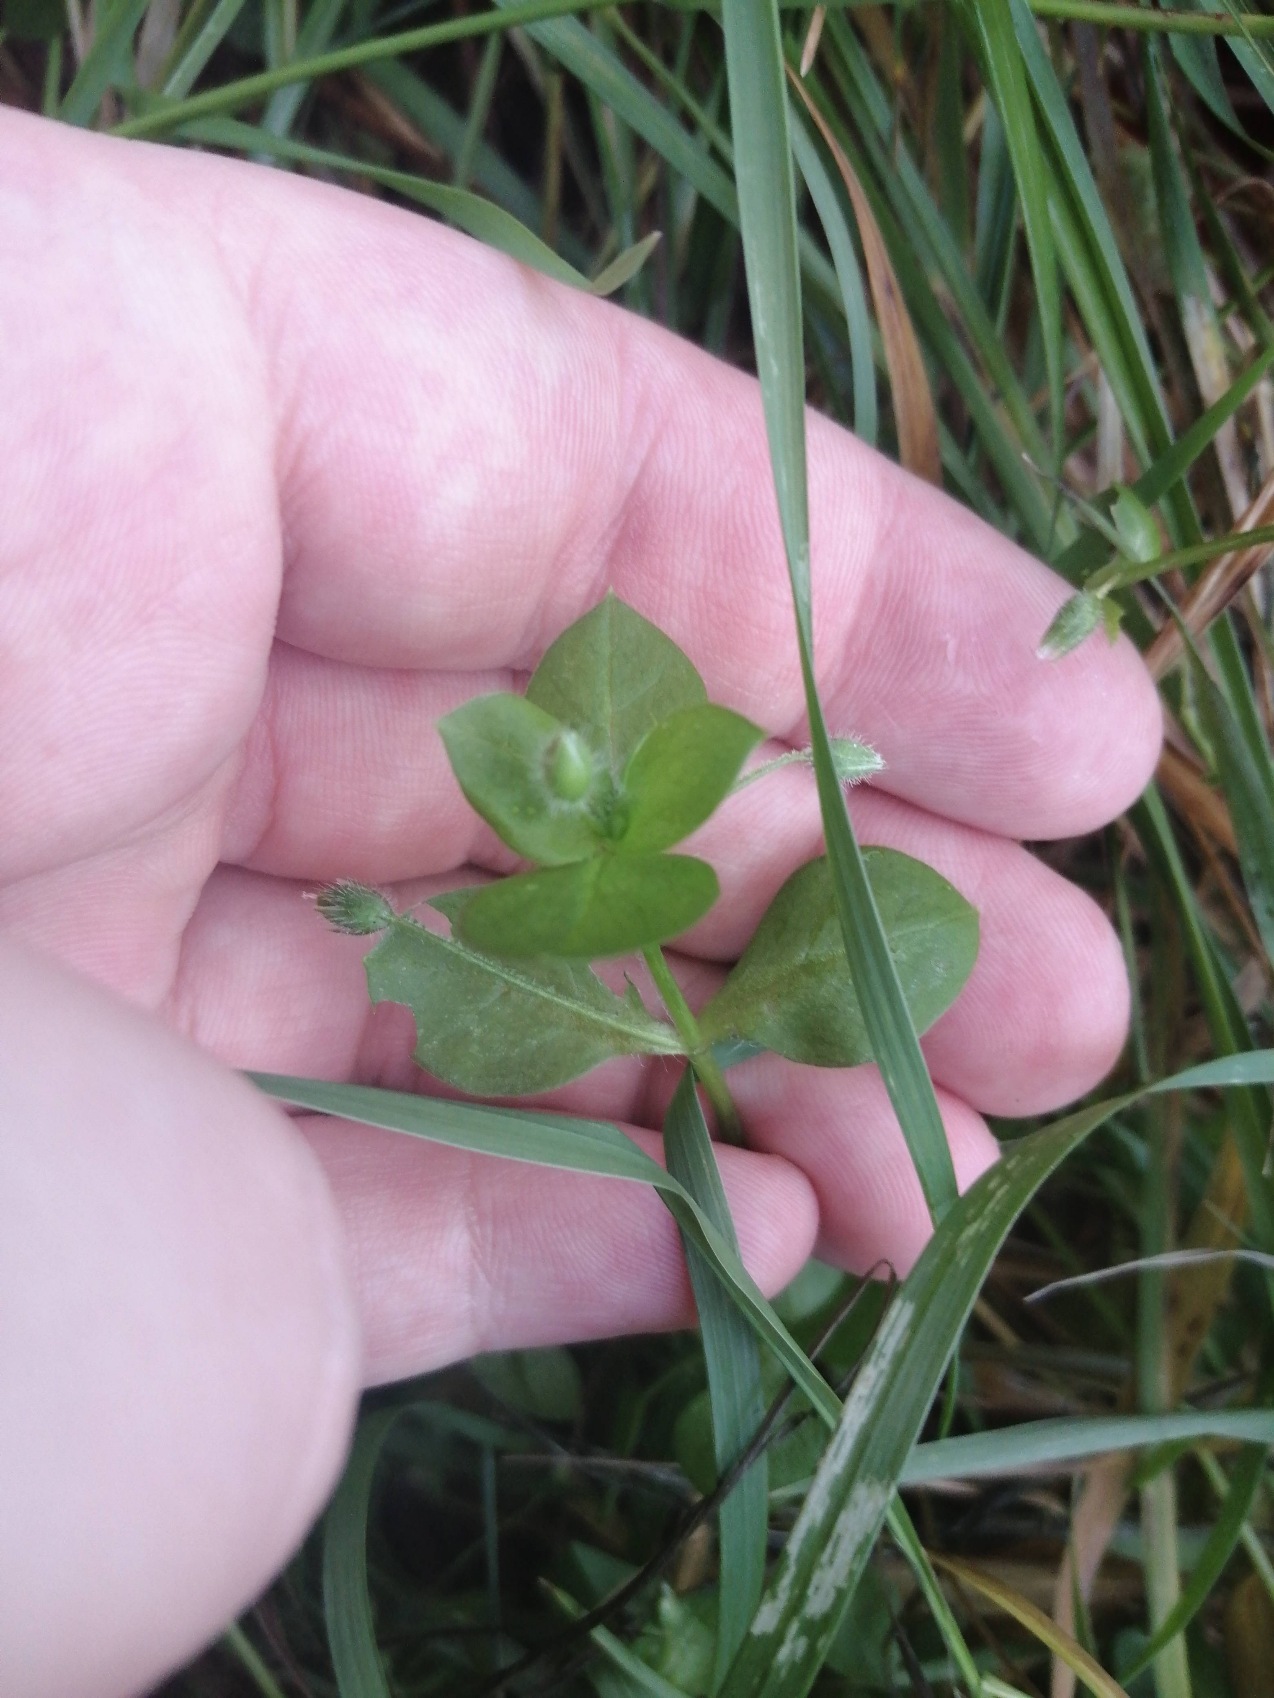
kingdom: Plantae
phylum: Tracheophyta
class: Magnoliopsida
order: Caryophyllales
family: Caryophyllaceae
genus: Stellaria
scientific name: Stellaria media
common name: Almindelig fuglegræs
